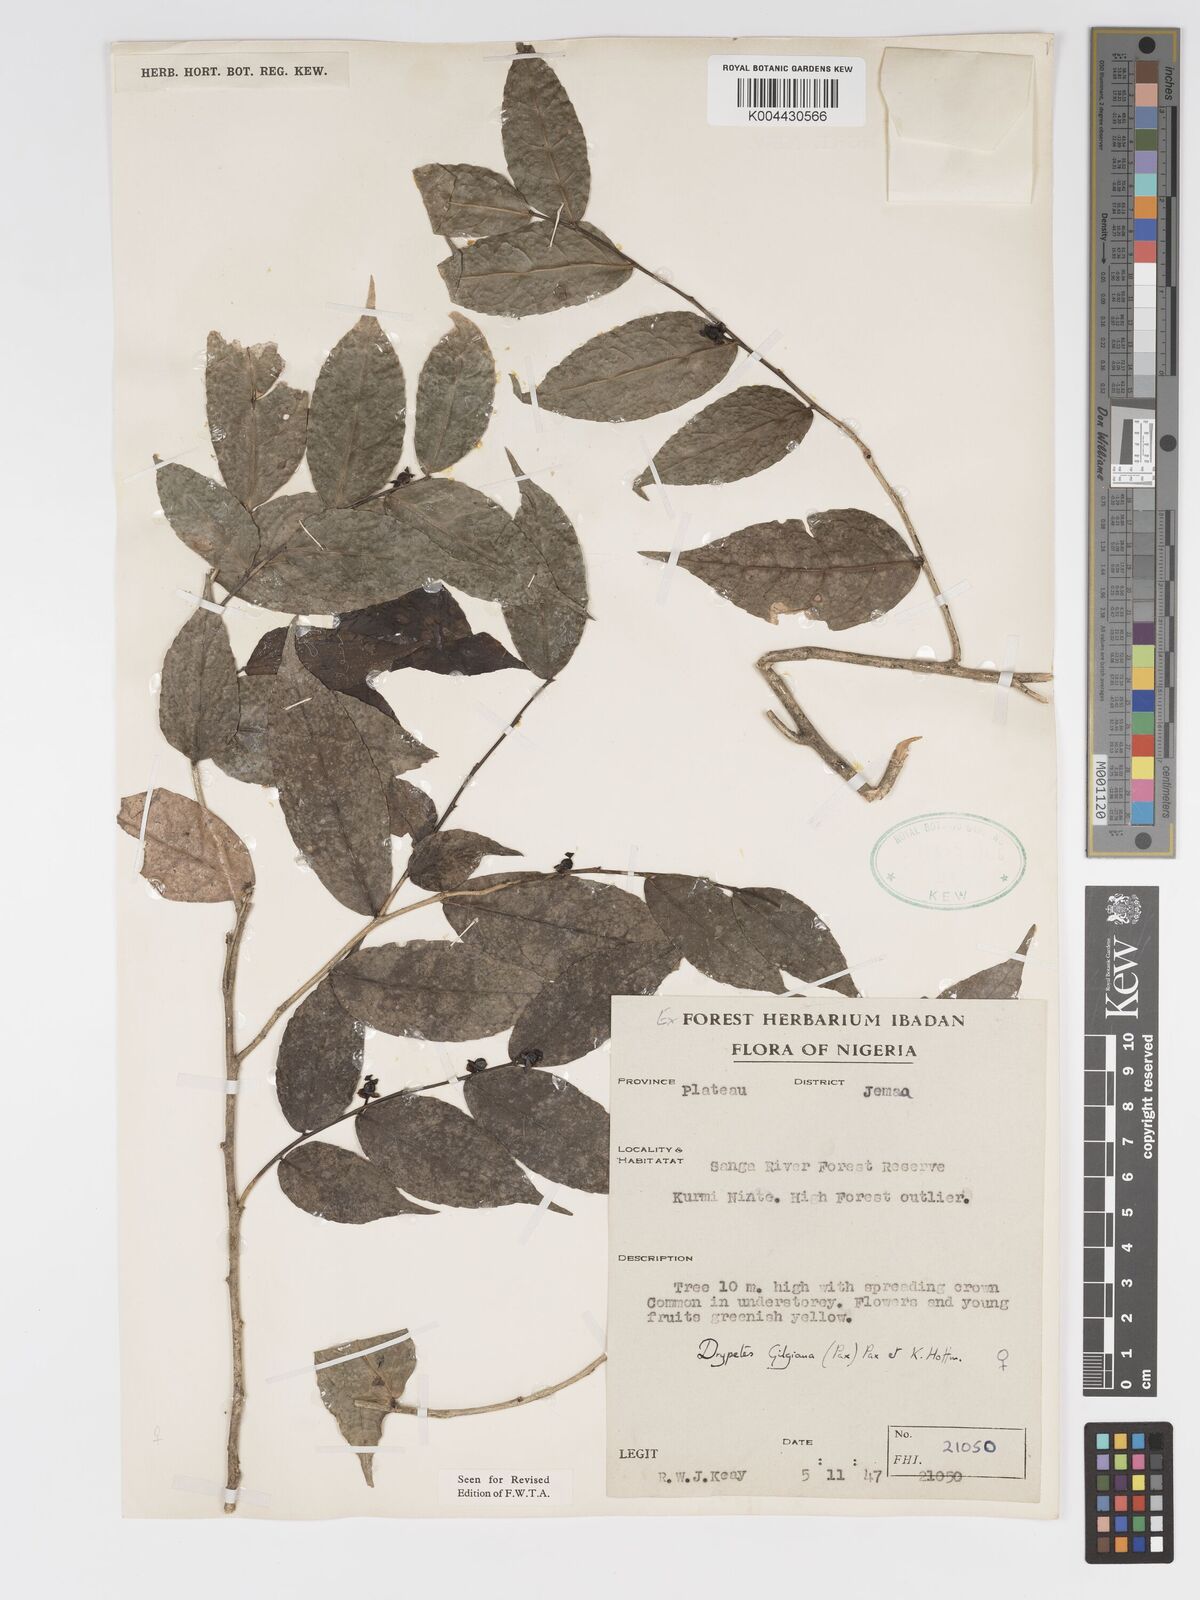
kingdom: Plantae
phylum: Tracheophyta
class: Magnoliopsida
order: Malpighiales
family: Putranjivaceae
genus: Drypetes
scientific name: Drypetes gilgiana
